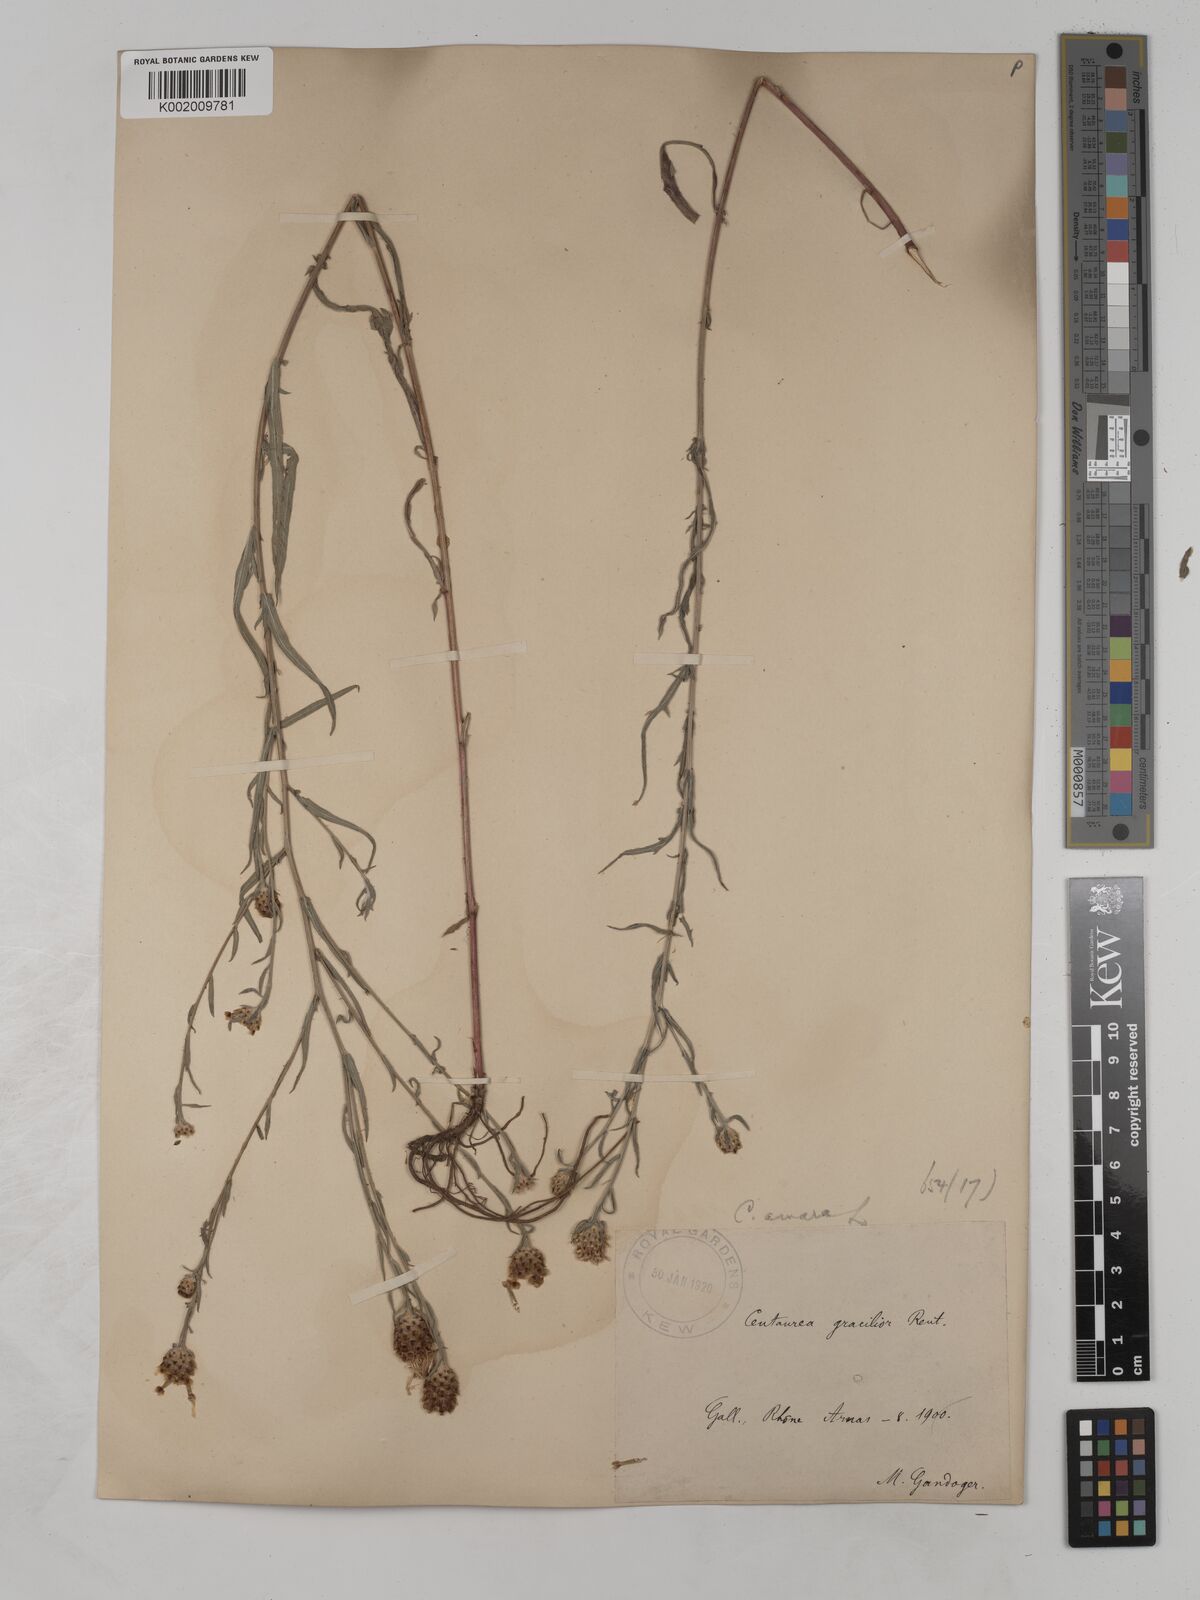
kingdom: Plantae
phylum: Tracheophyta
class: Magnoliopsida
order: Asterales
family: Asteraceae
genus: Centaurea
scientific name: Centaurea timbalii
